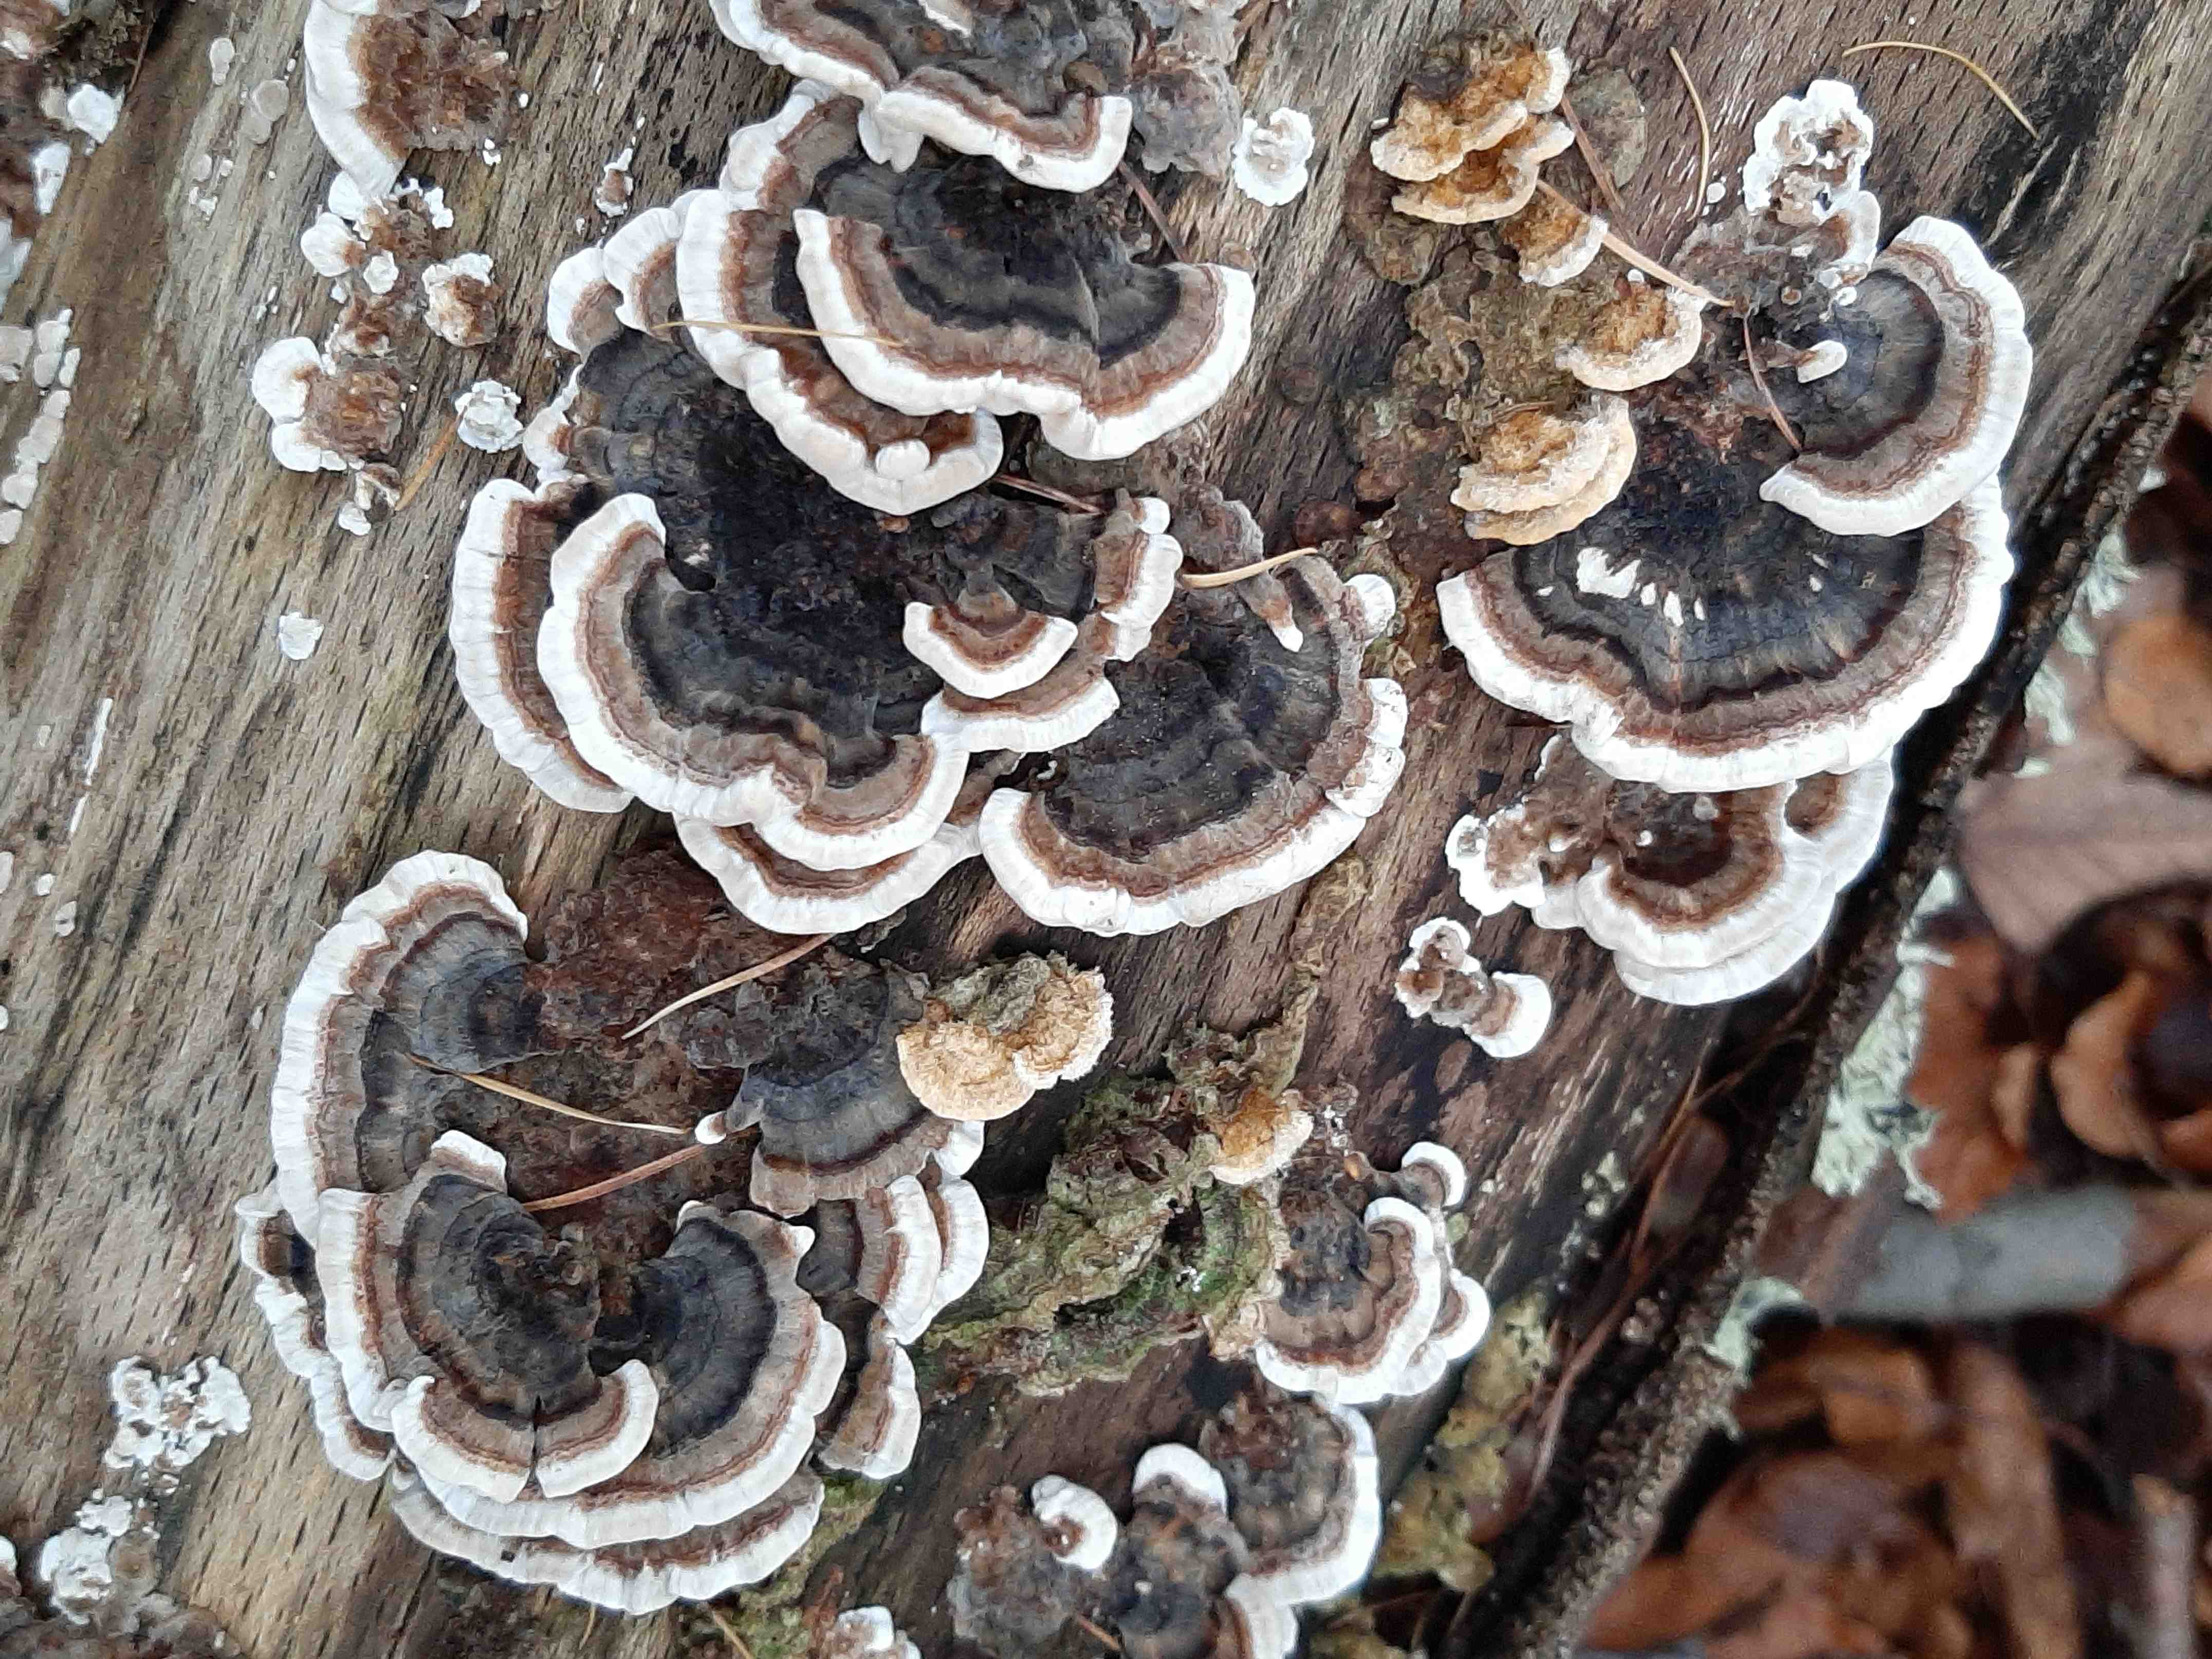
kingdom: Fungi
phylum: Basidiomycota
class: Agaricomycetes
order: Polyporales
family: Polyporaceae
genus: Trametes
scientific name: Trametes versicolor
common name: broget læderporesvamp
